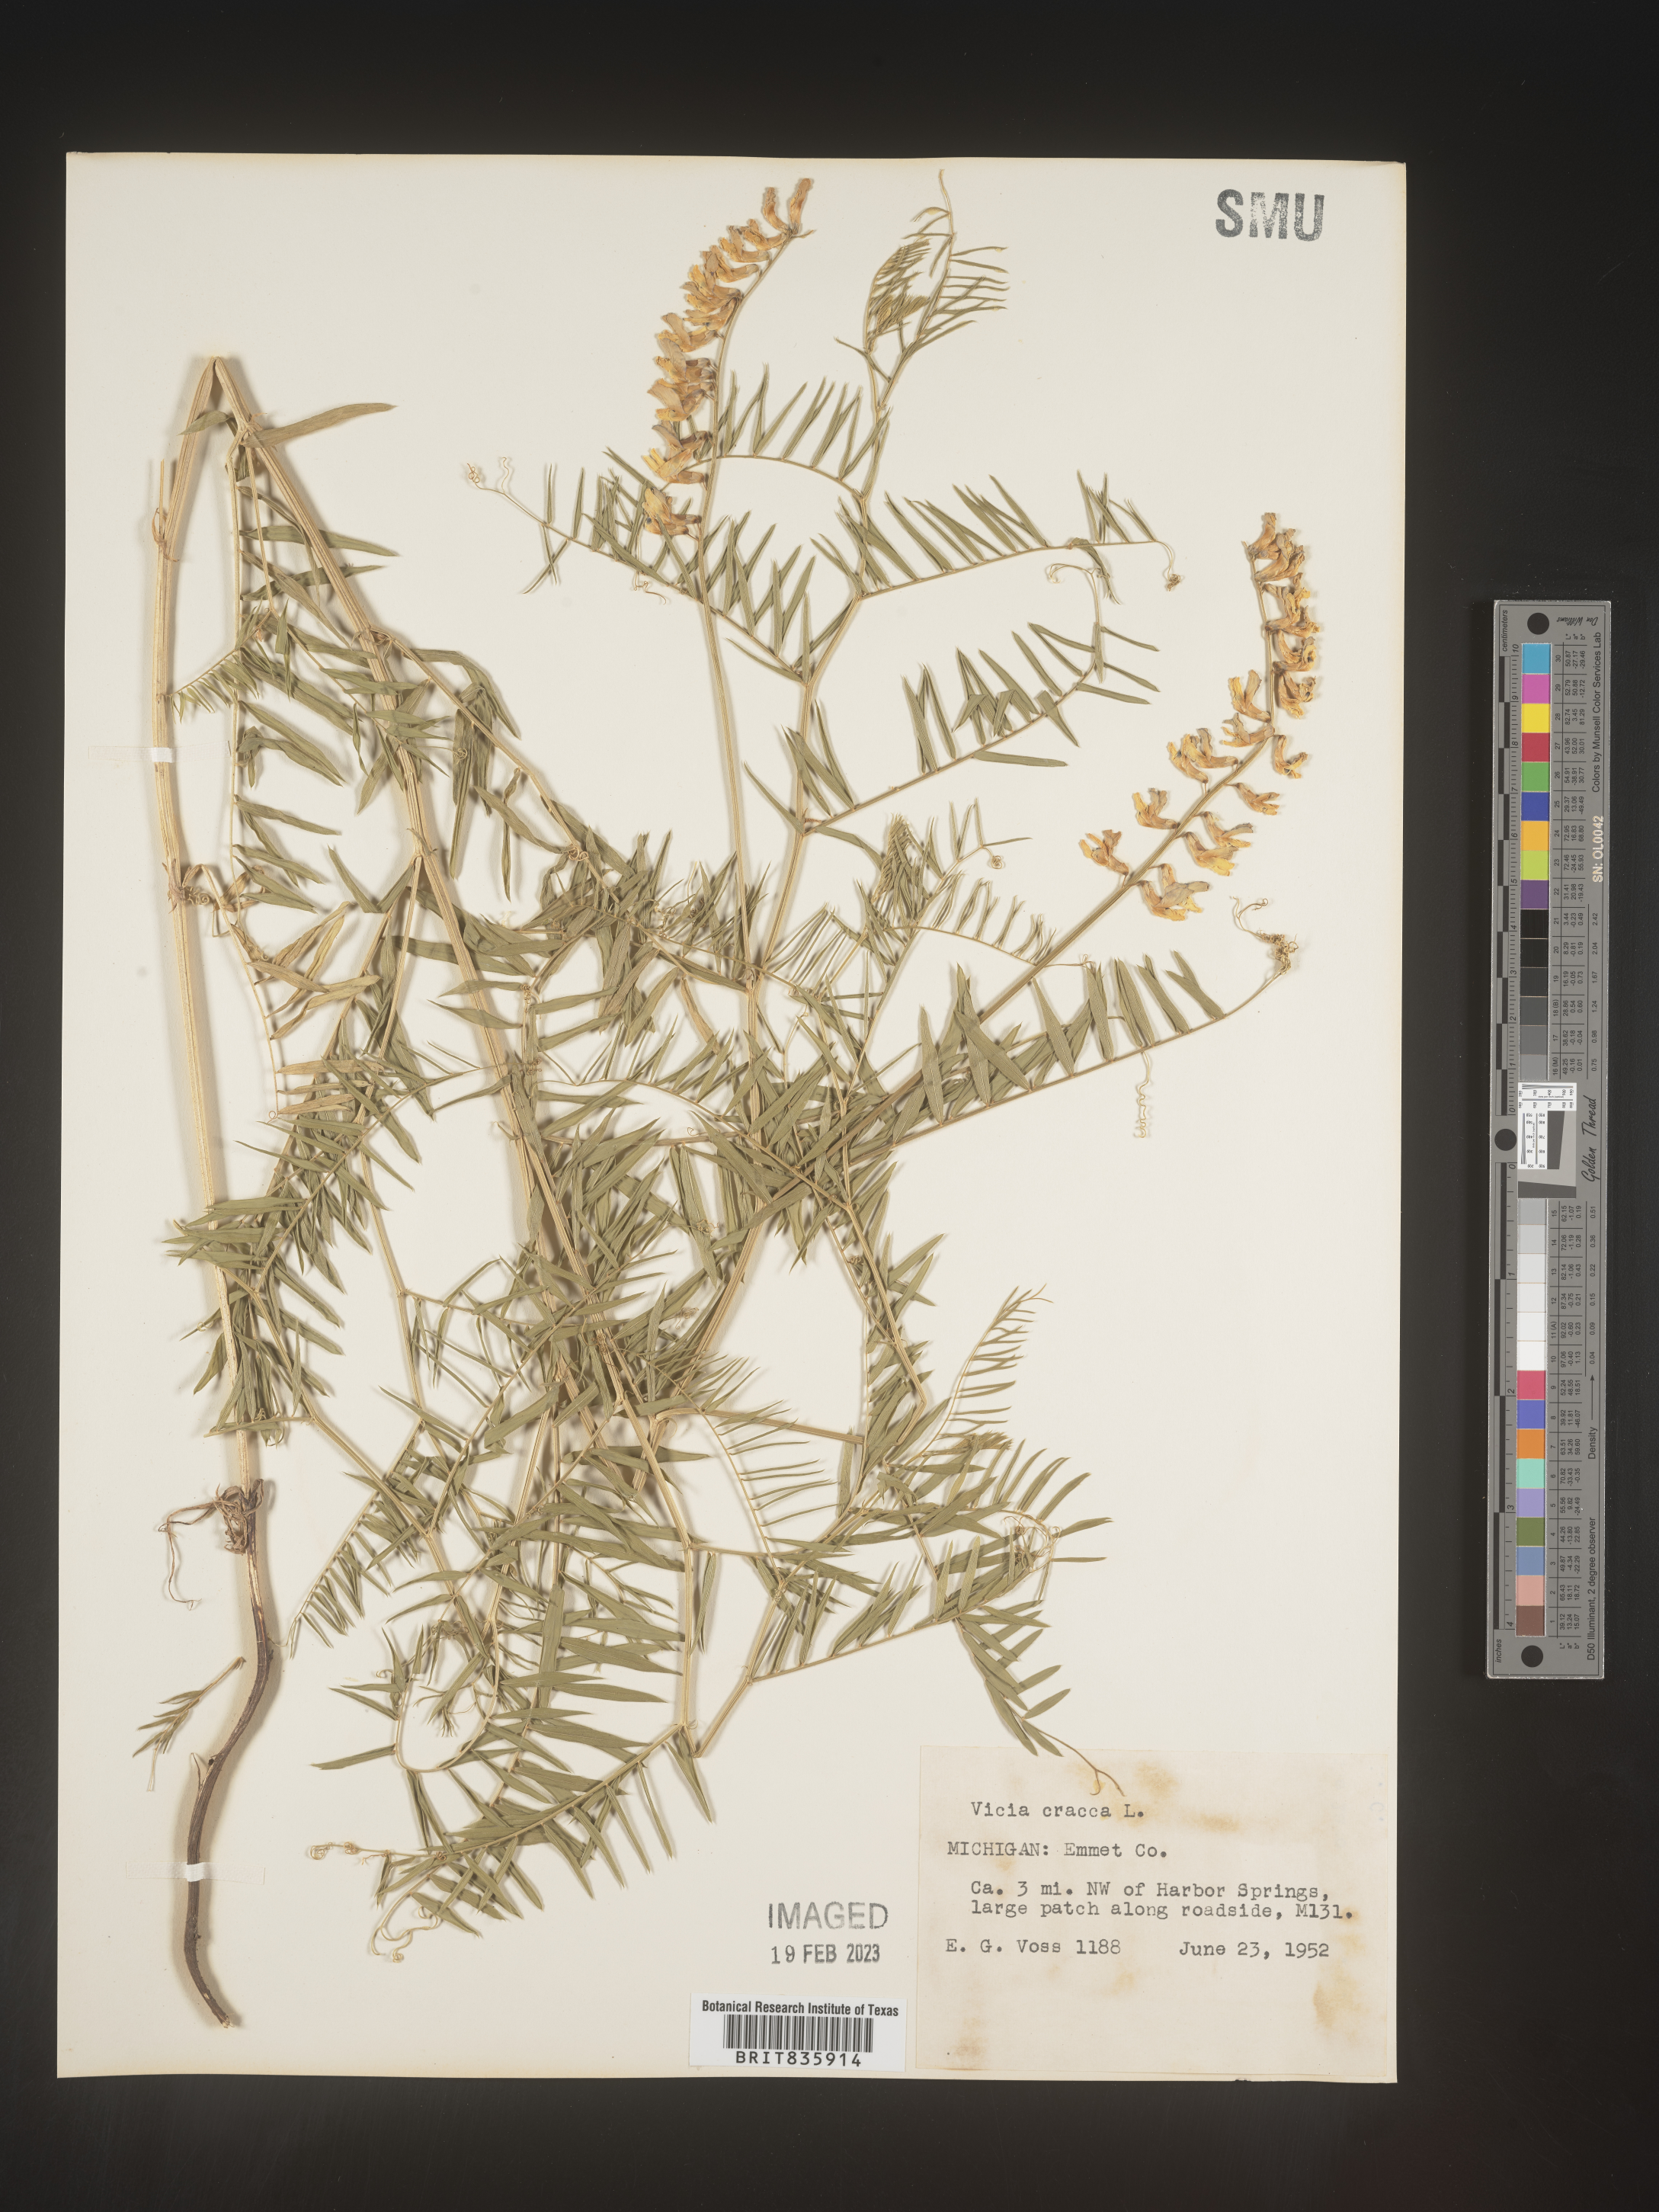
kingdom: Plantae
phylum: Tracheophyta
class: Magnoliopsida
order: Fabales
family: Fabaceae
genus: Vicia
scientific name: Vicia cracca
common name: Bird vetch
